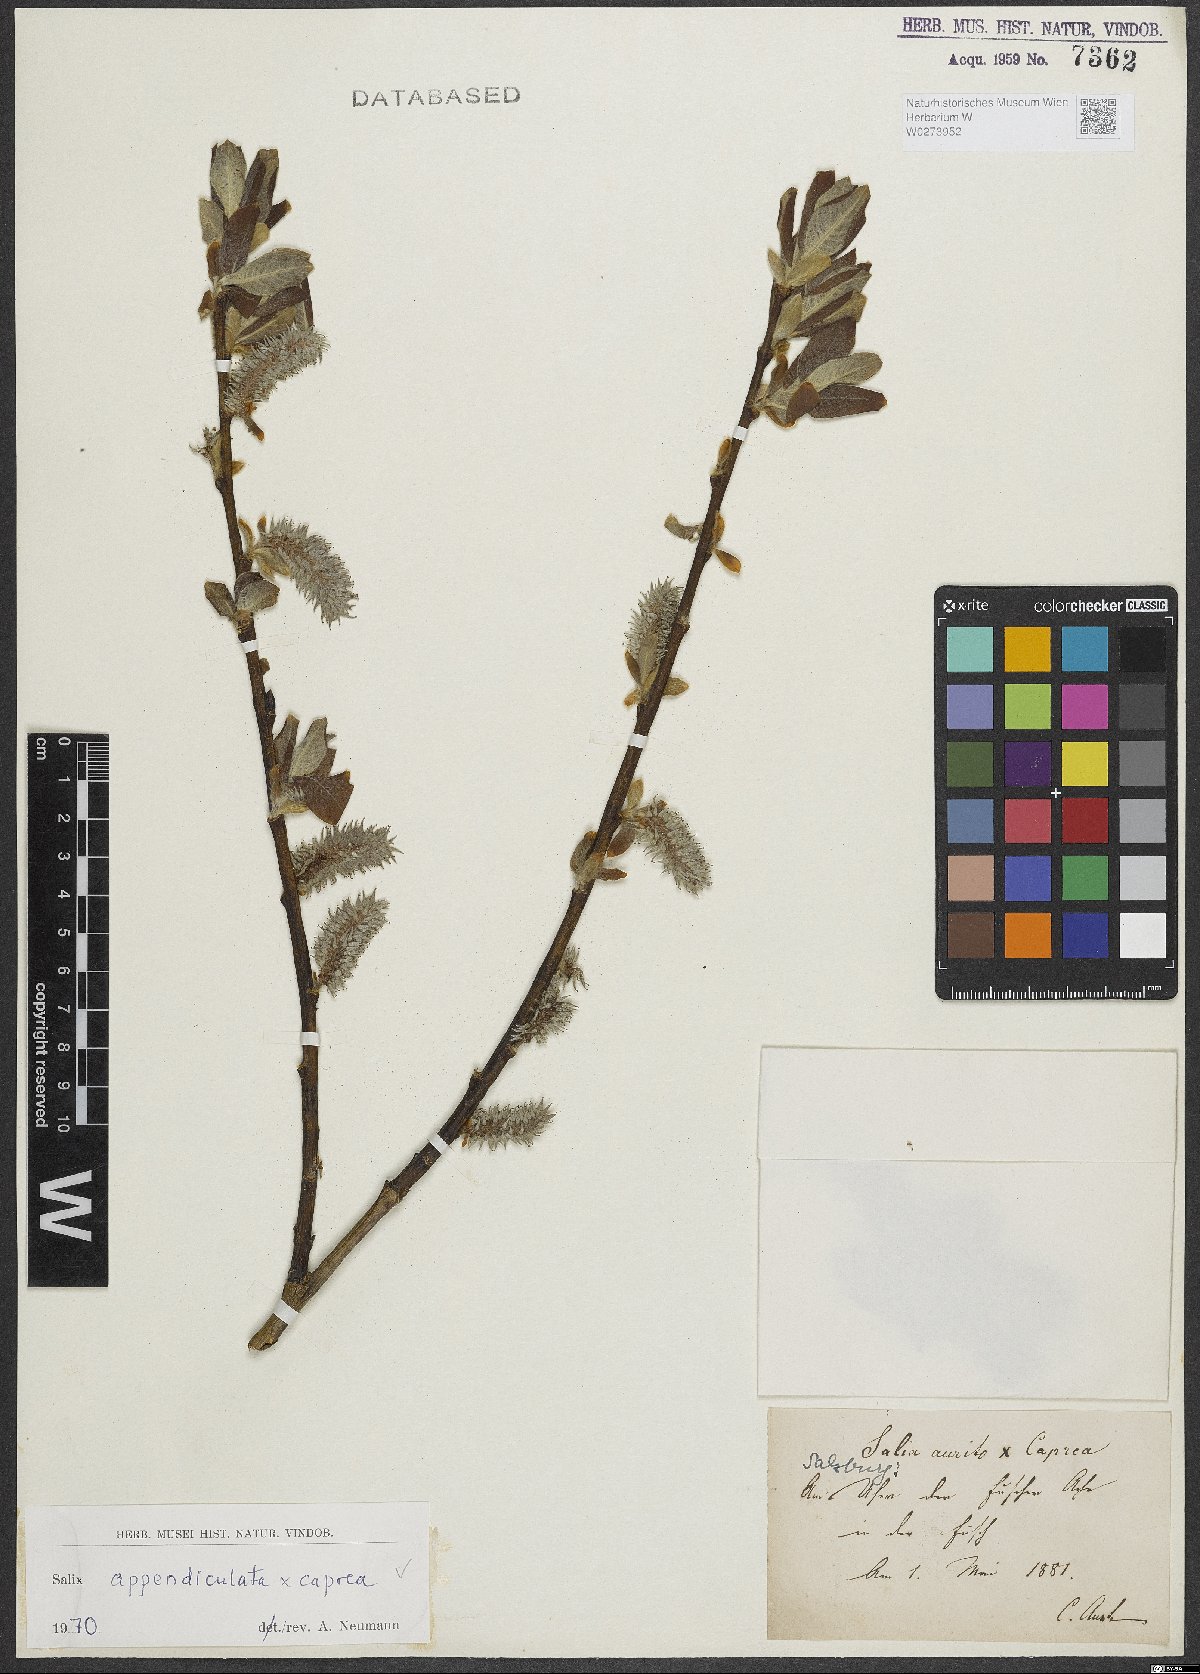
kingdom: Plantae
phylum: Tracheophyta
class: Magnoliopsida
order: Malpighiales
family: Salicaceae
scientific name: Salicaceae
